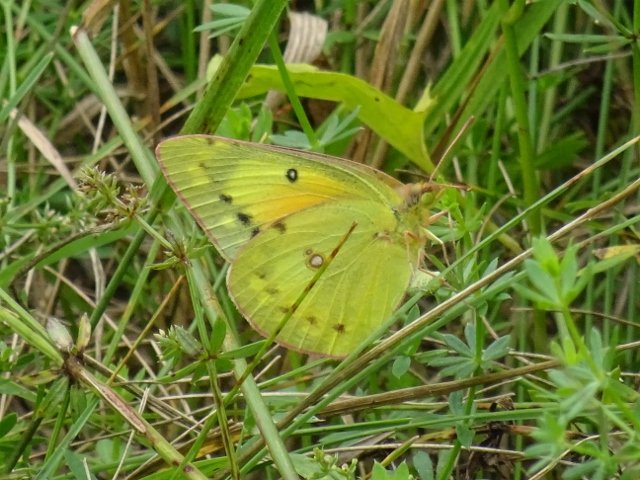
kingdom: Animalia
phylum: Arthropoda
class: Insecta
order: Lepidoptera
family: Pieridae
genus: Colias
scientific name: Colias eurytheme
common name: Orange Sulphur
